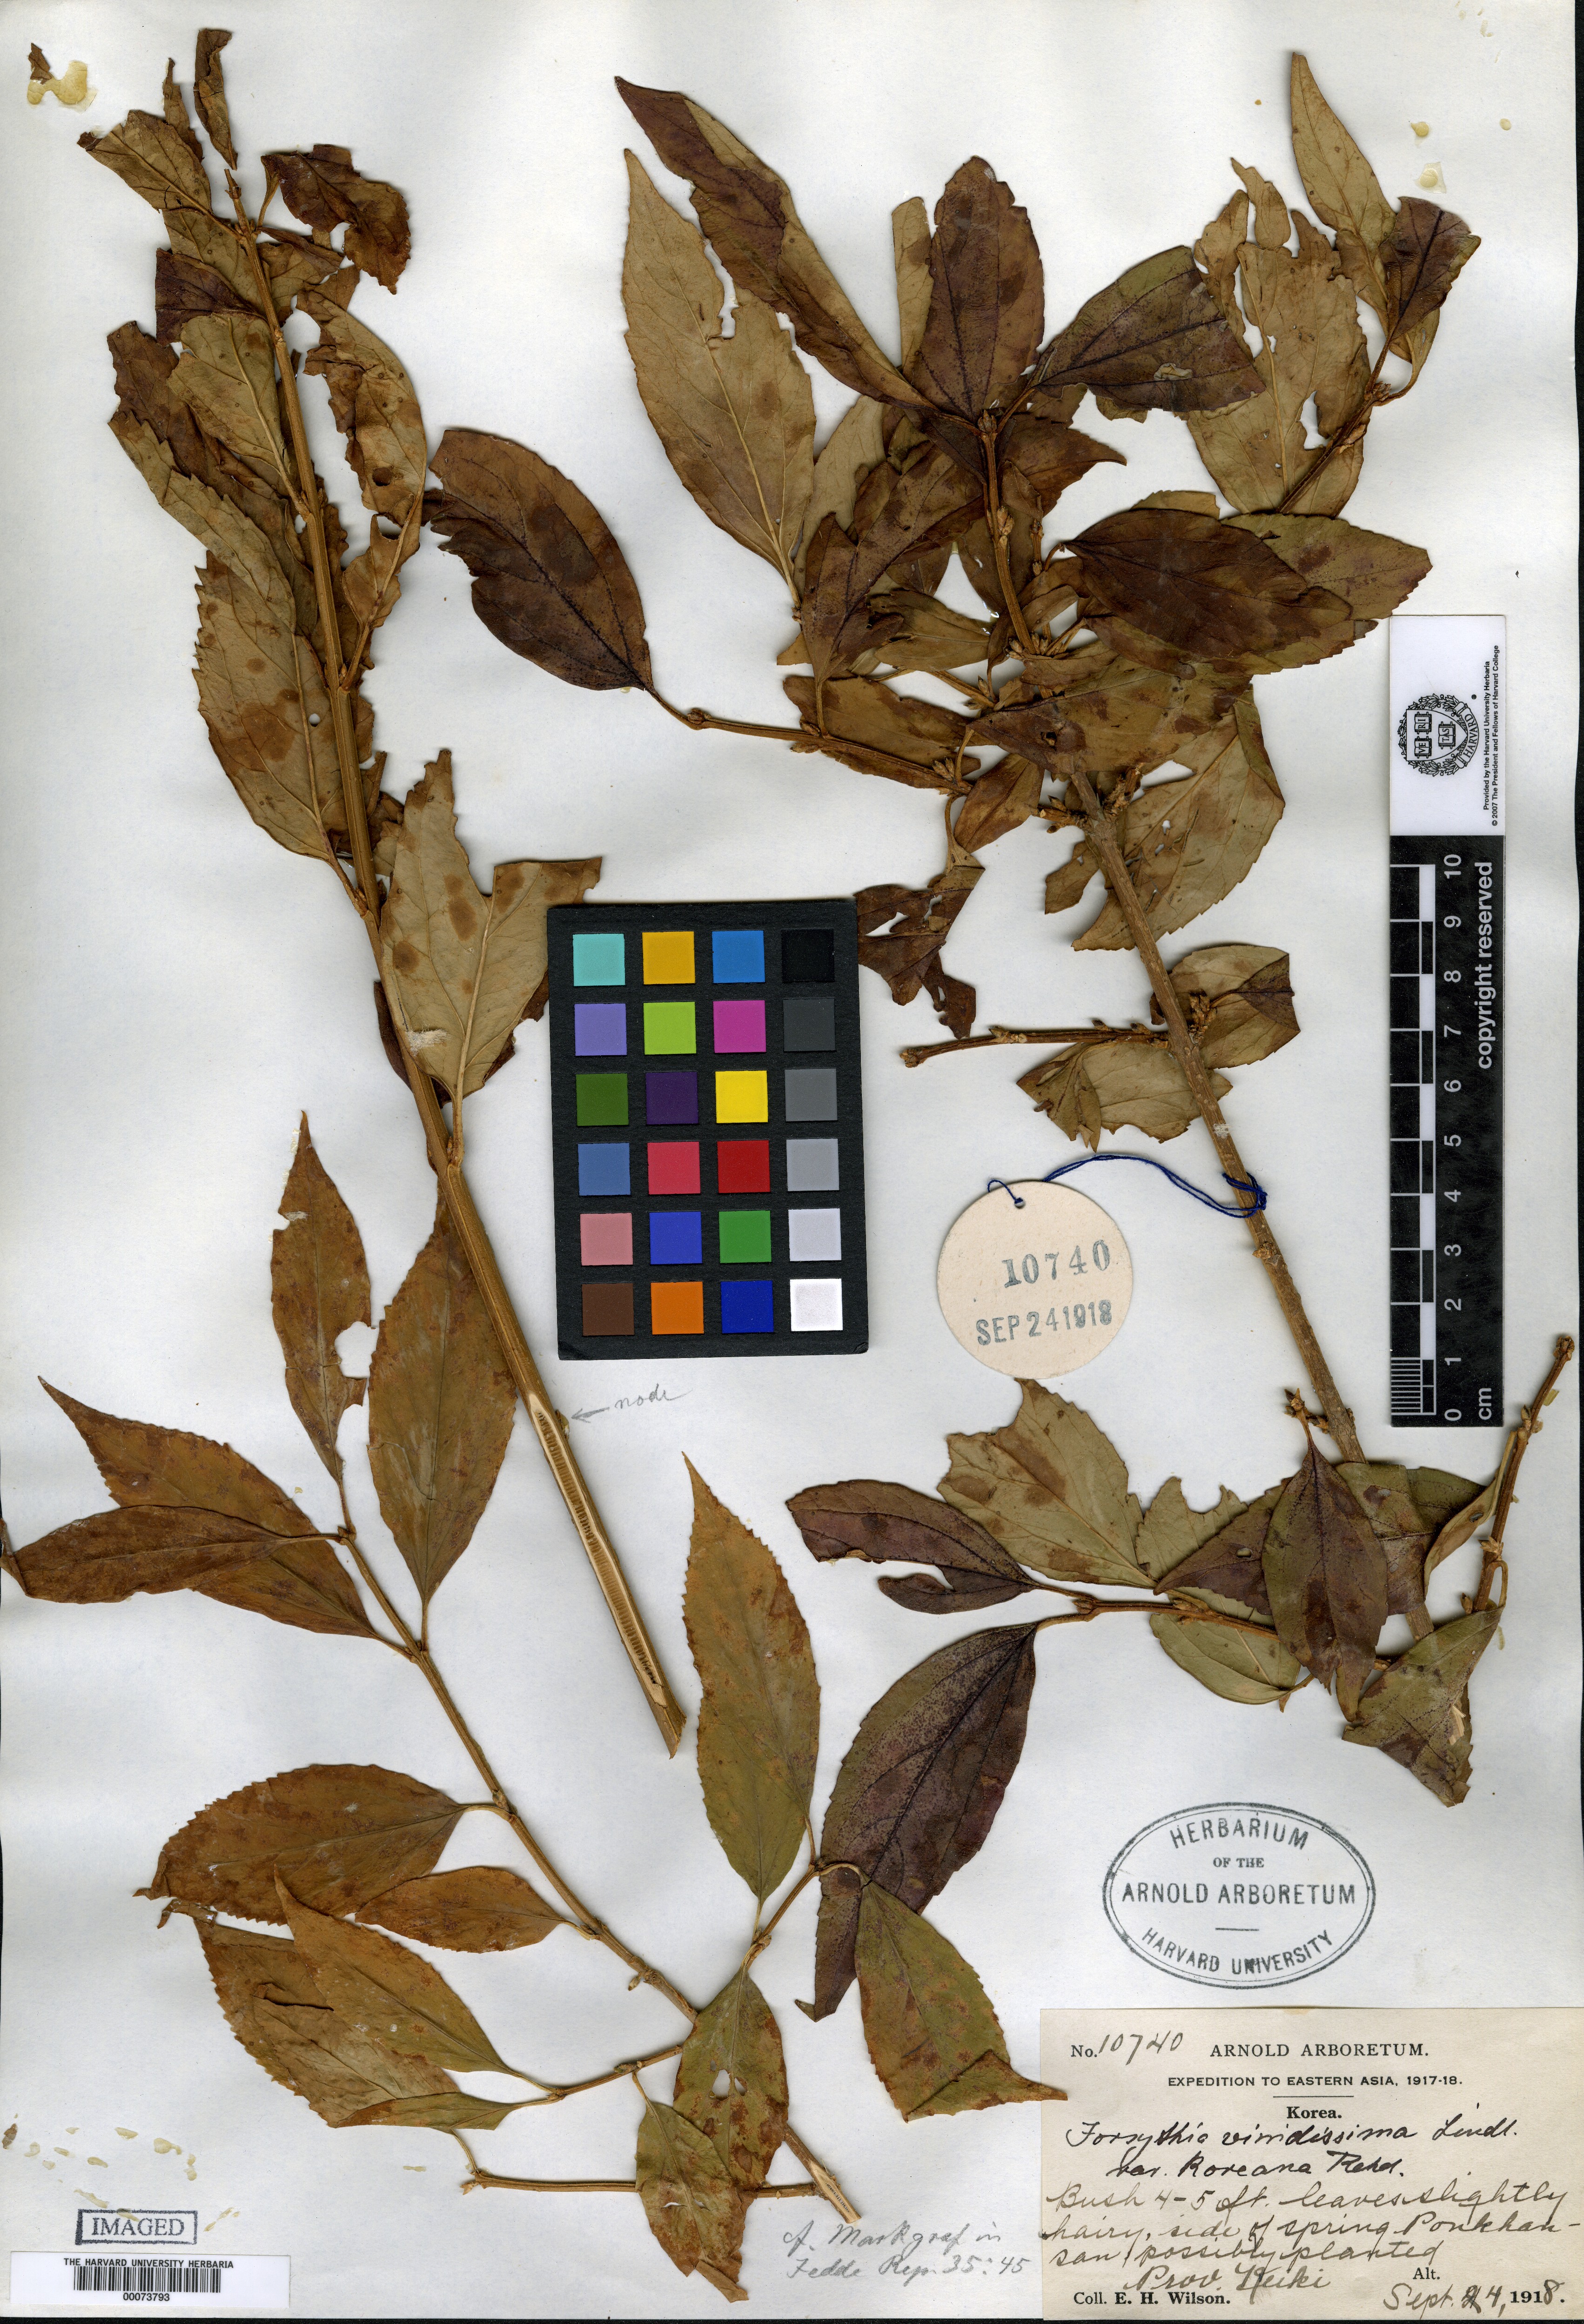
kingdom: Plantae
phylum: Tracheophyta
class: Magnoliopsida
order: Lamiales
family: Oleaceae
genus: Forsythia
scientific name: Forsythia koreana
